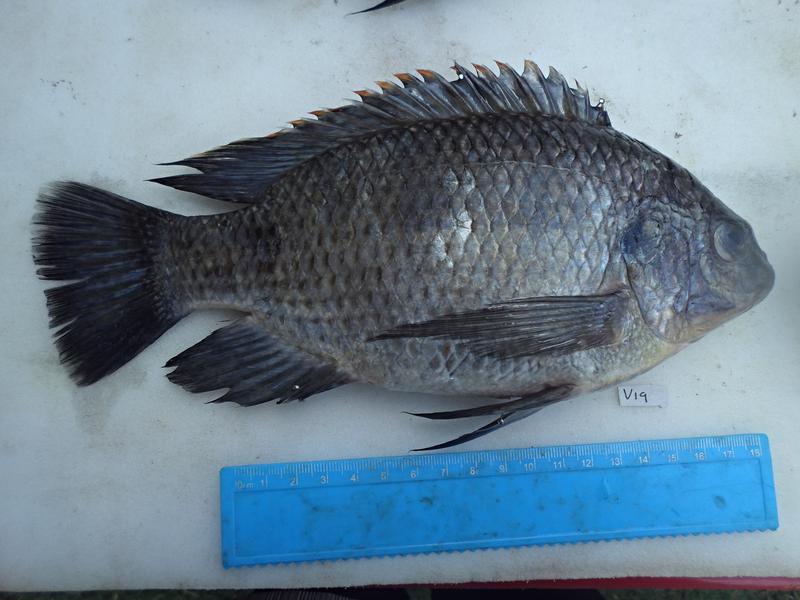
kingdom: Animalia
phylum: Chordata
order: Perciformes
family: Cichlidae
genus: Oreochromis
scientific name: Oreochromis variabilis
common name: Victoria tilapia
